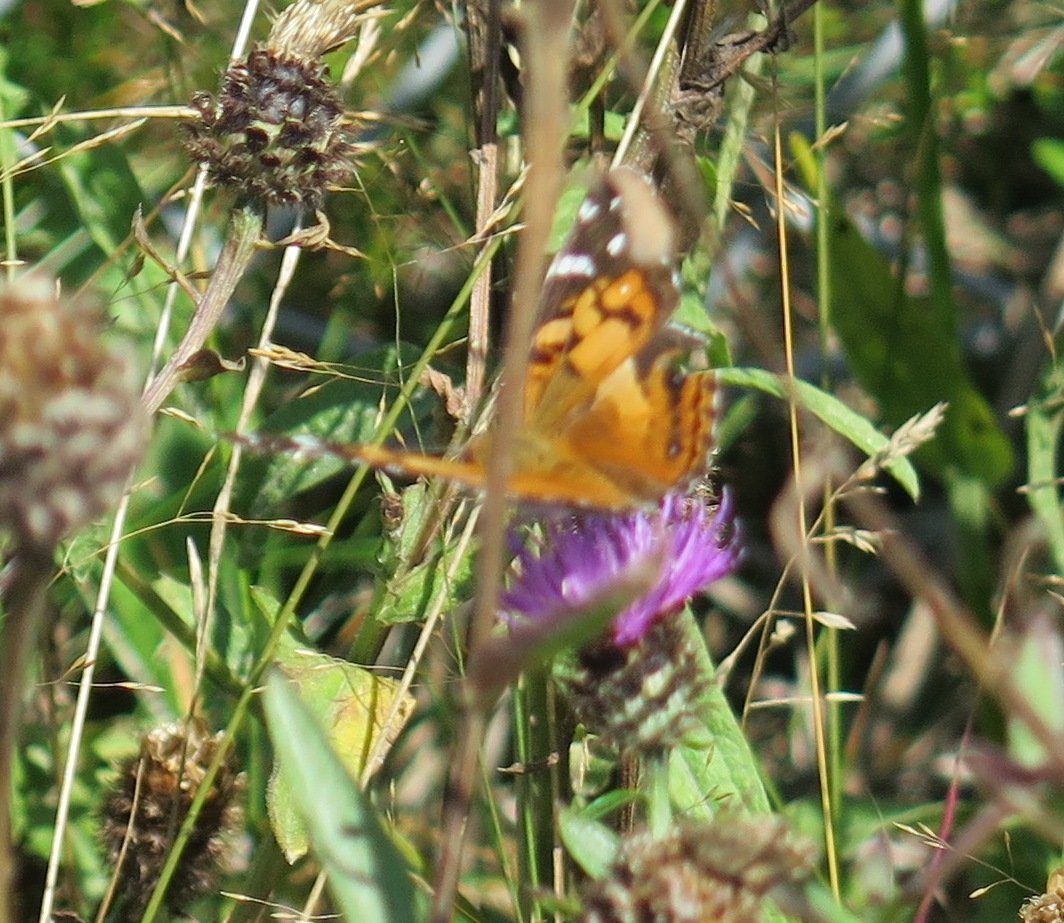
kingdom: Animalia
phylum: Arthropoda
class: Insecta
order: Lepidoptera
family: Nymphalidae
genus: Vanessa
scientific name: Vanessa virginiensis
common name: American Lady
